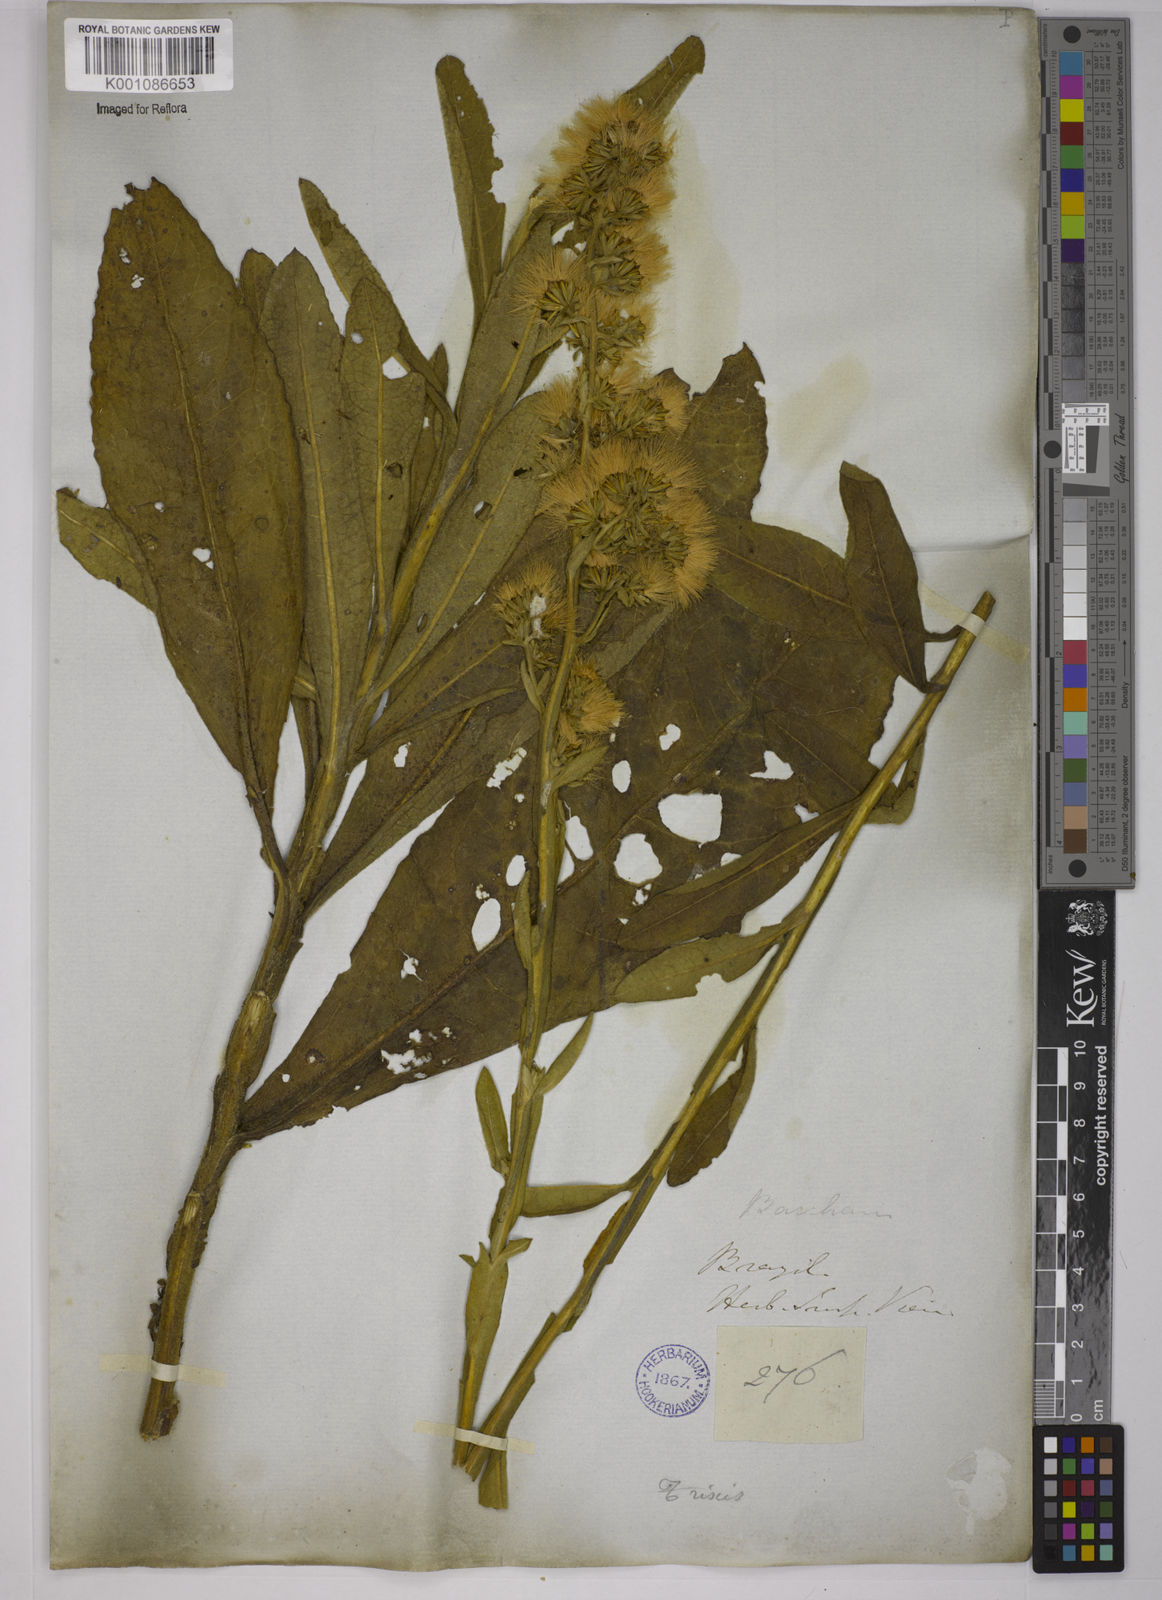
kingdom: Plantae
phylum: Tracheophyta
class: Magnoliopsida
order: Asterales
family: Asteraceae
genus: Trixis
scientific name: Trixis nobilis
